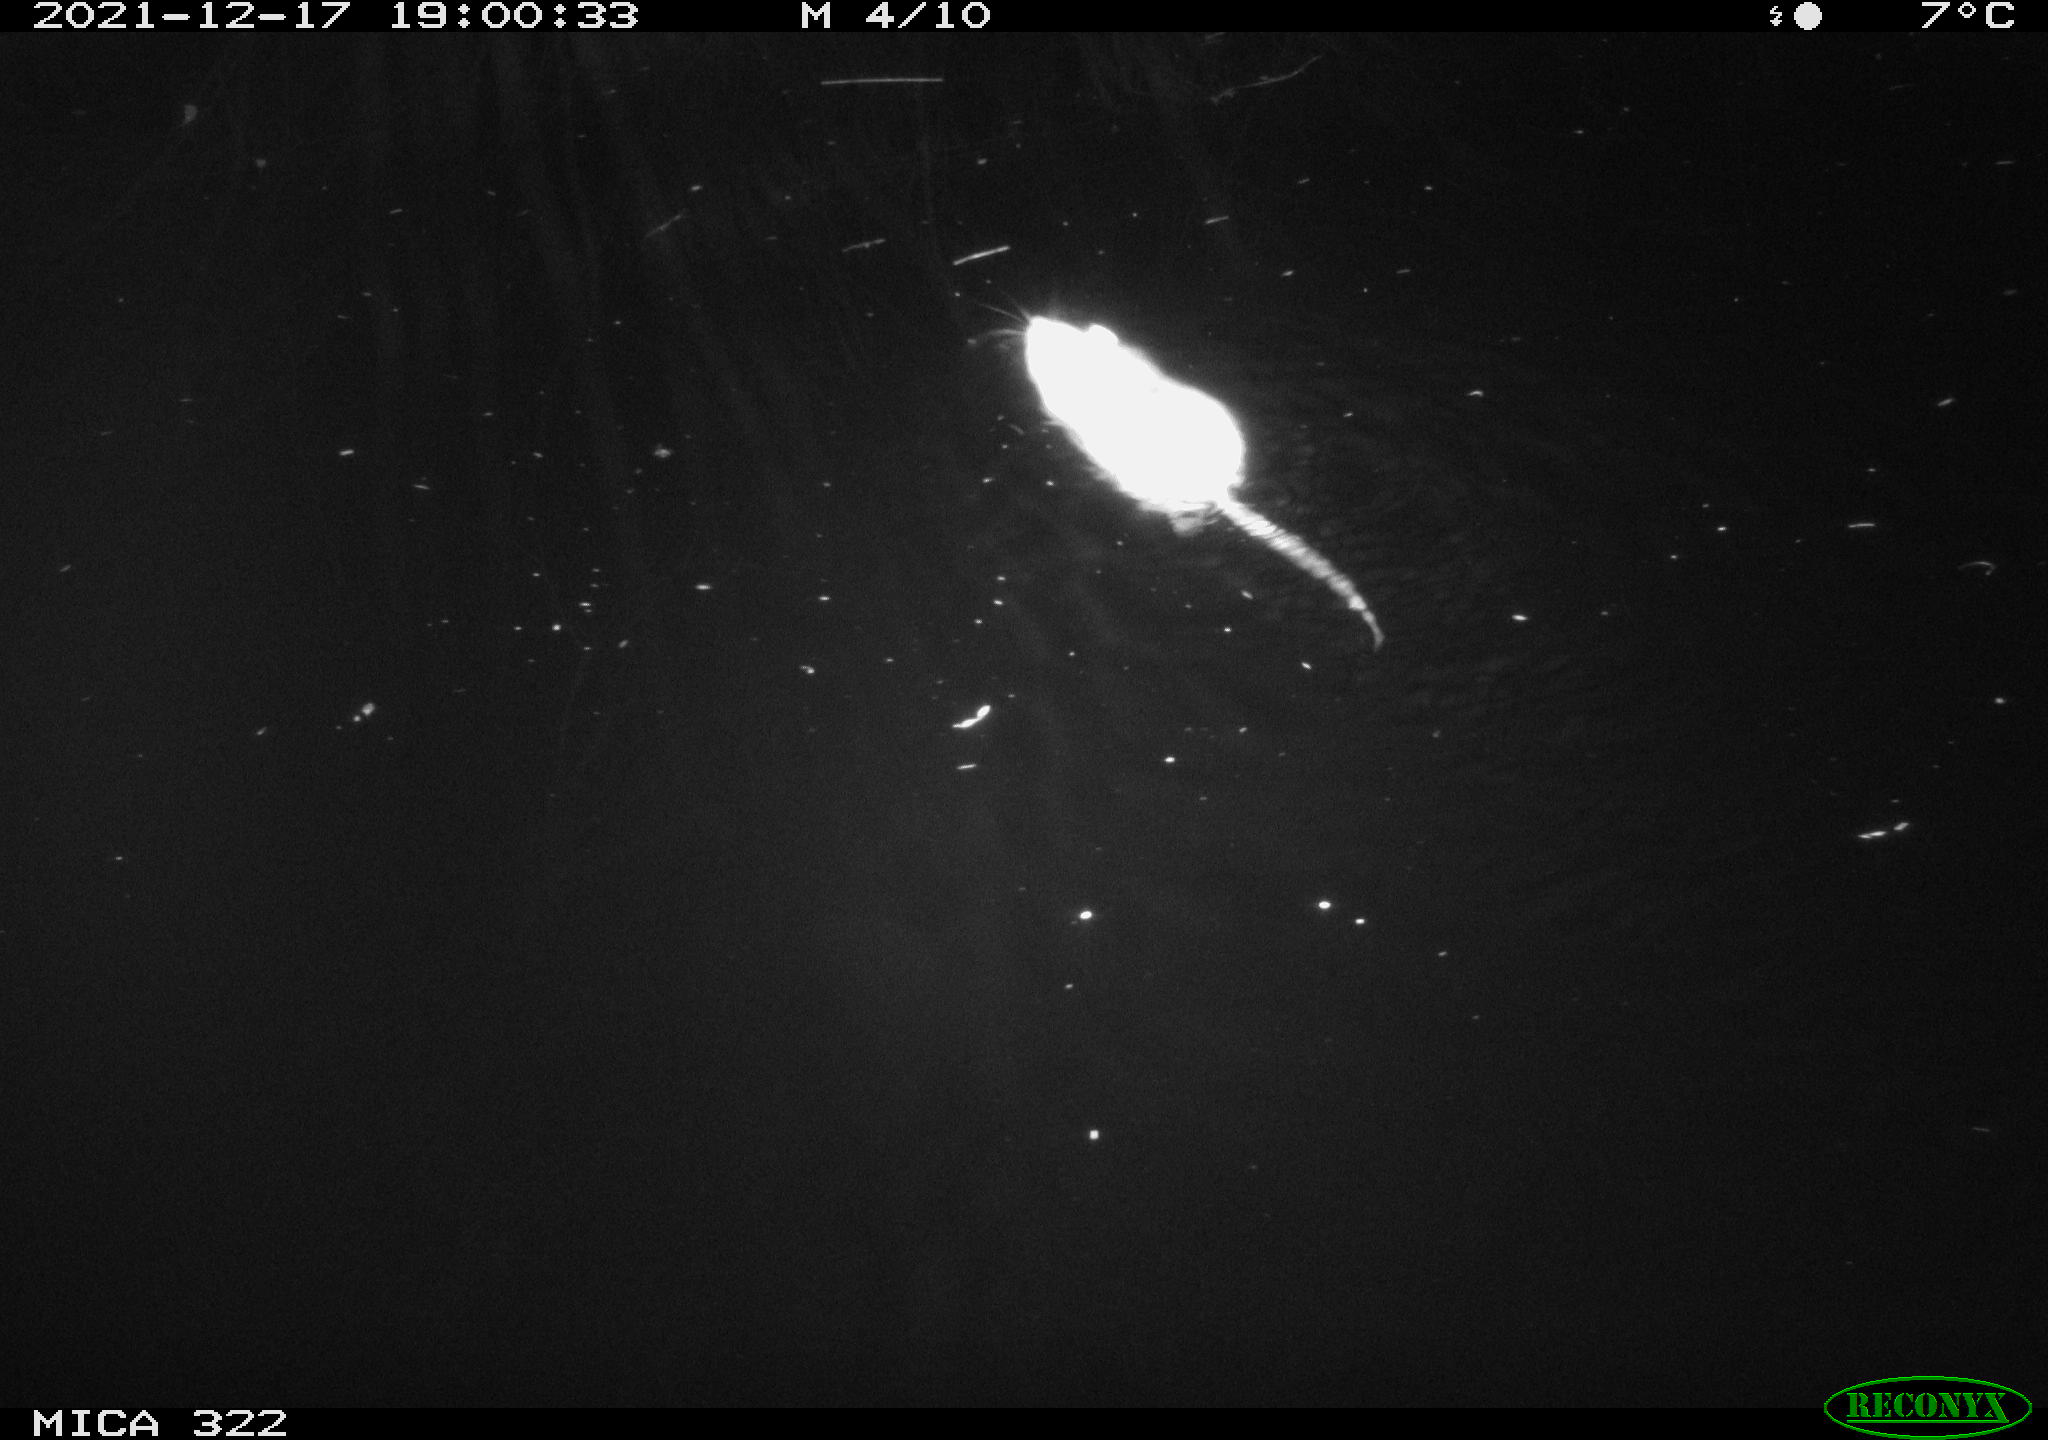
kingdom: Animalia
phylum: Chordata
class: Mammalia
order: Rodentia
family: Muridae
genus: Rattus
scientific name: Rattus norvegicus
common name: Brown rat
